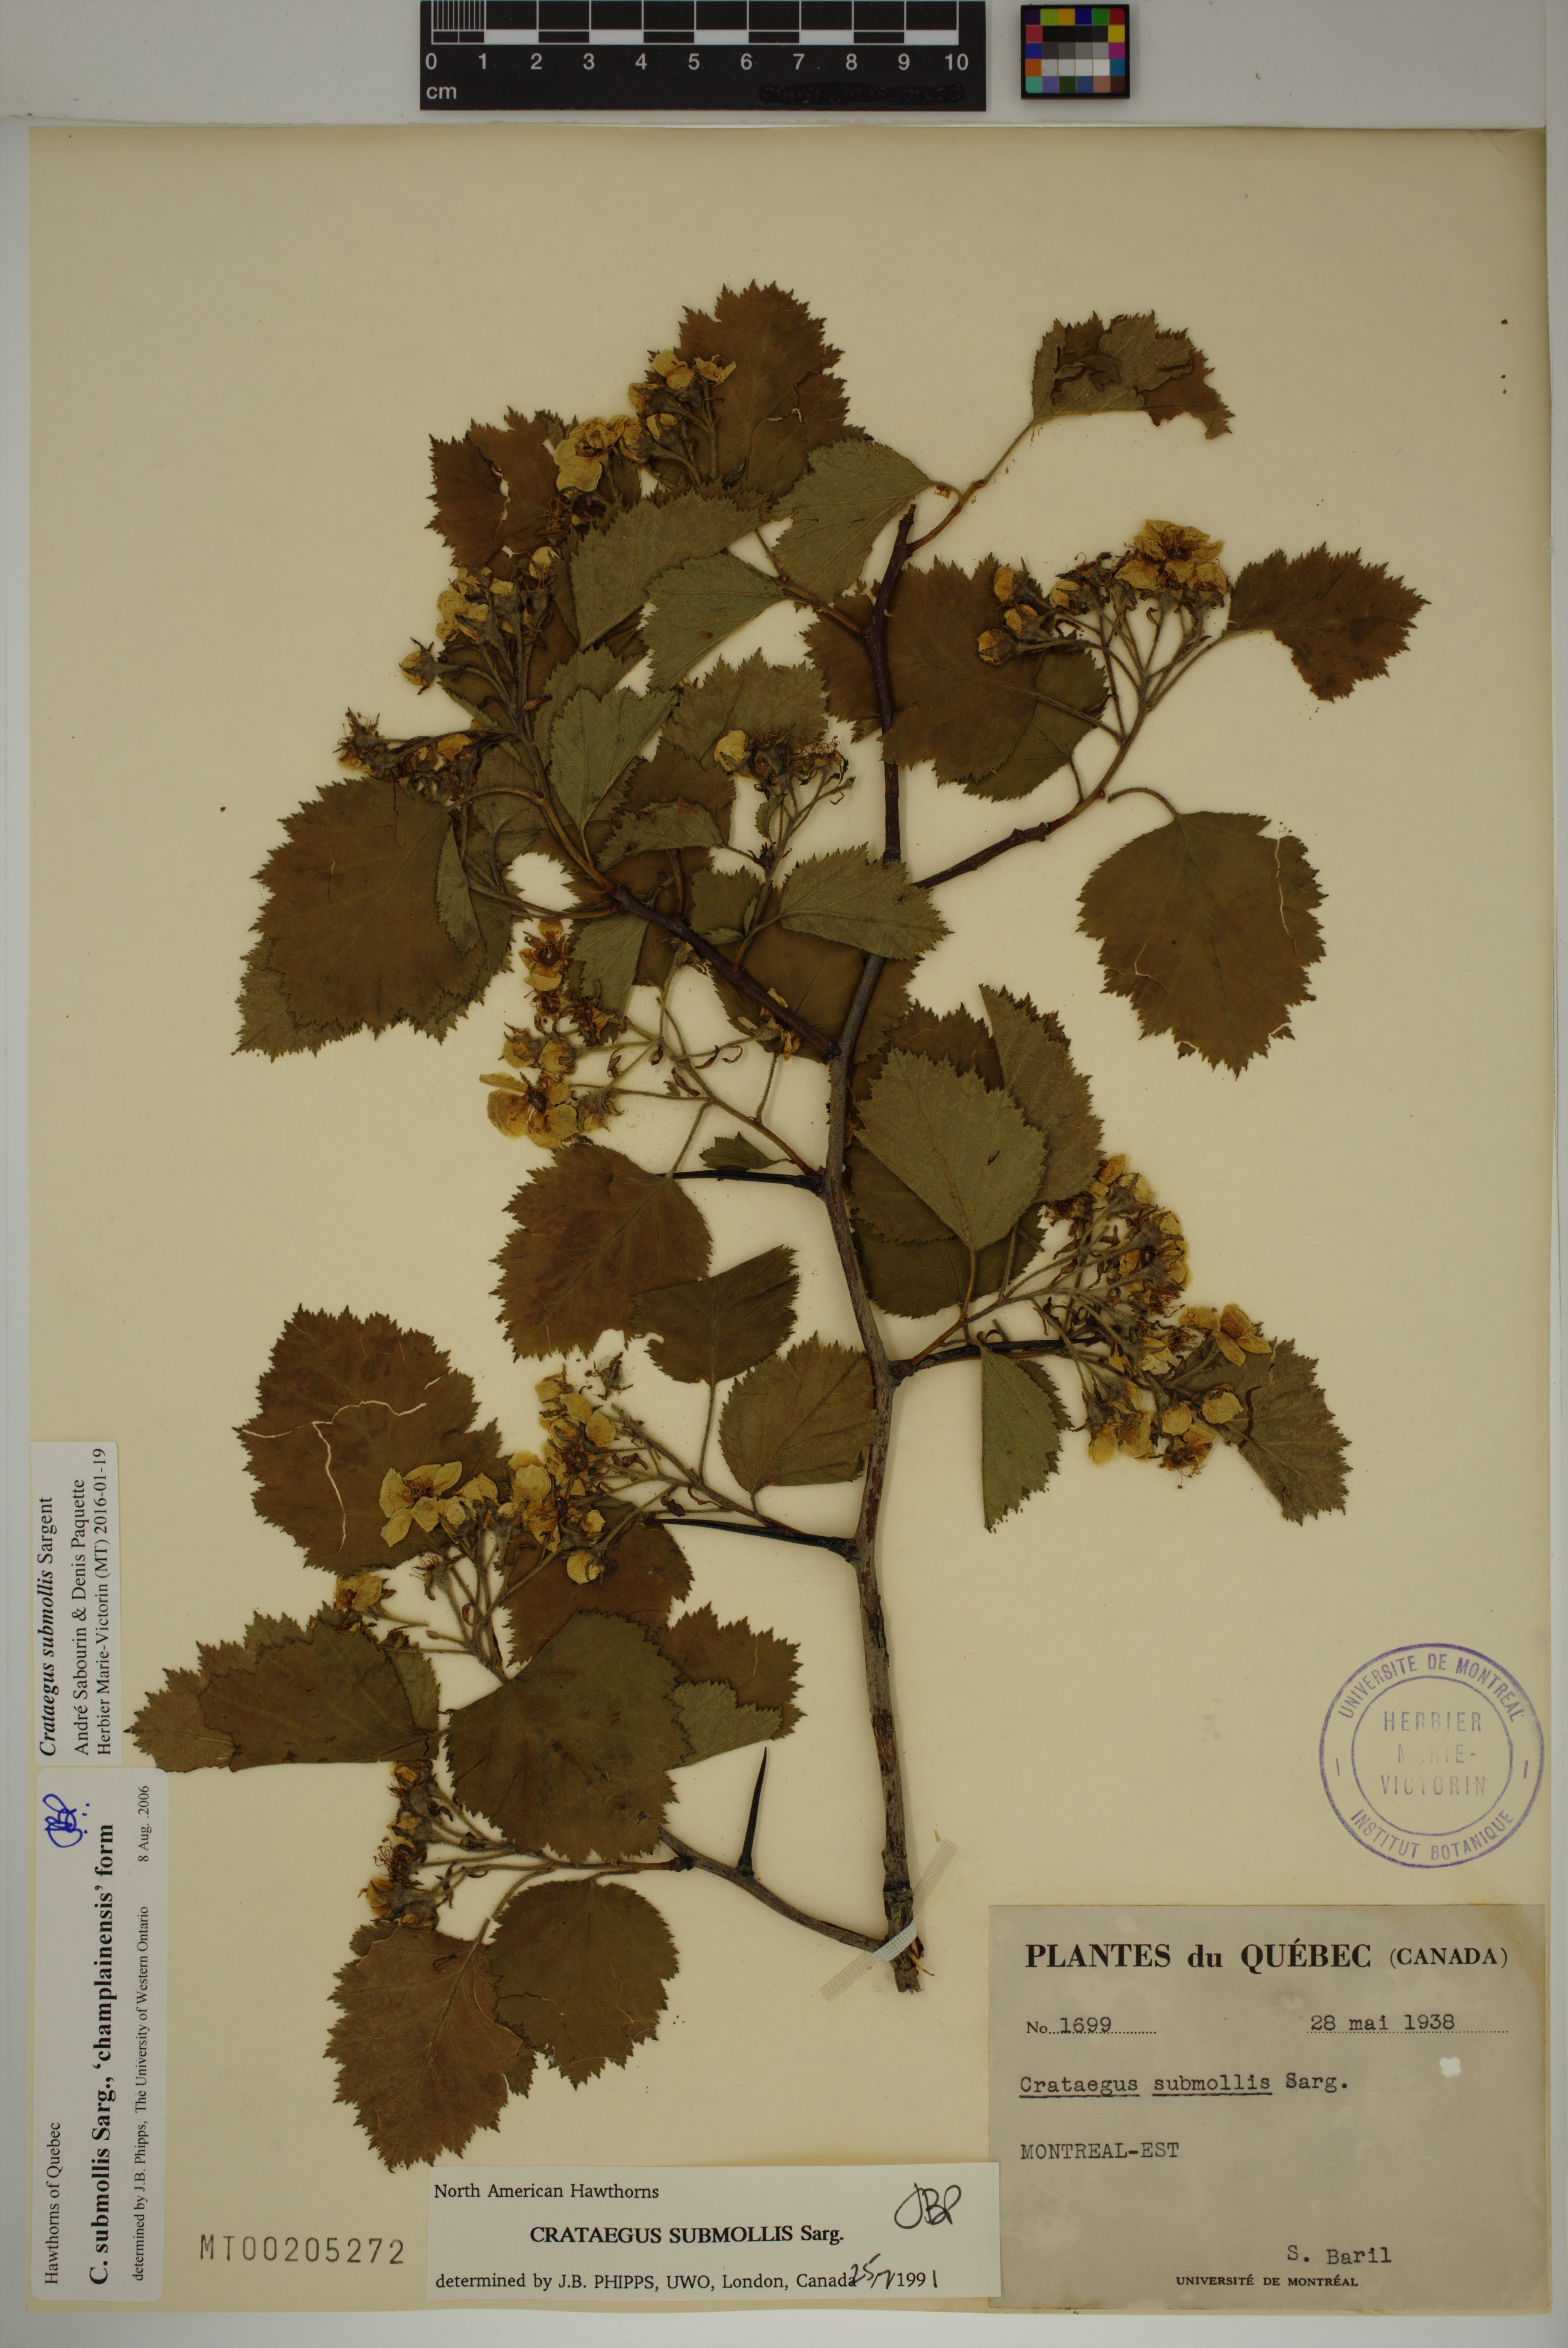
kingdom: Plantae
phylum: Tracheophyta
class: Magnoliopsida
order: Rosales
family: Rosaceae
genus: Crataegus
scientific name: Crataegus submollis
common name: Hairy cockspurthorn
